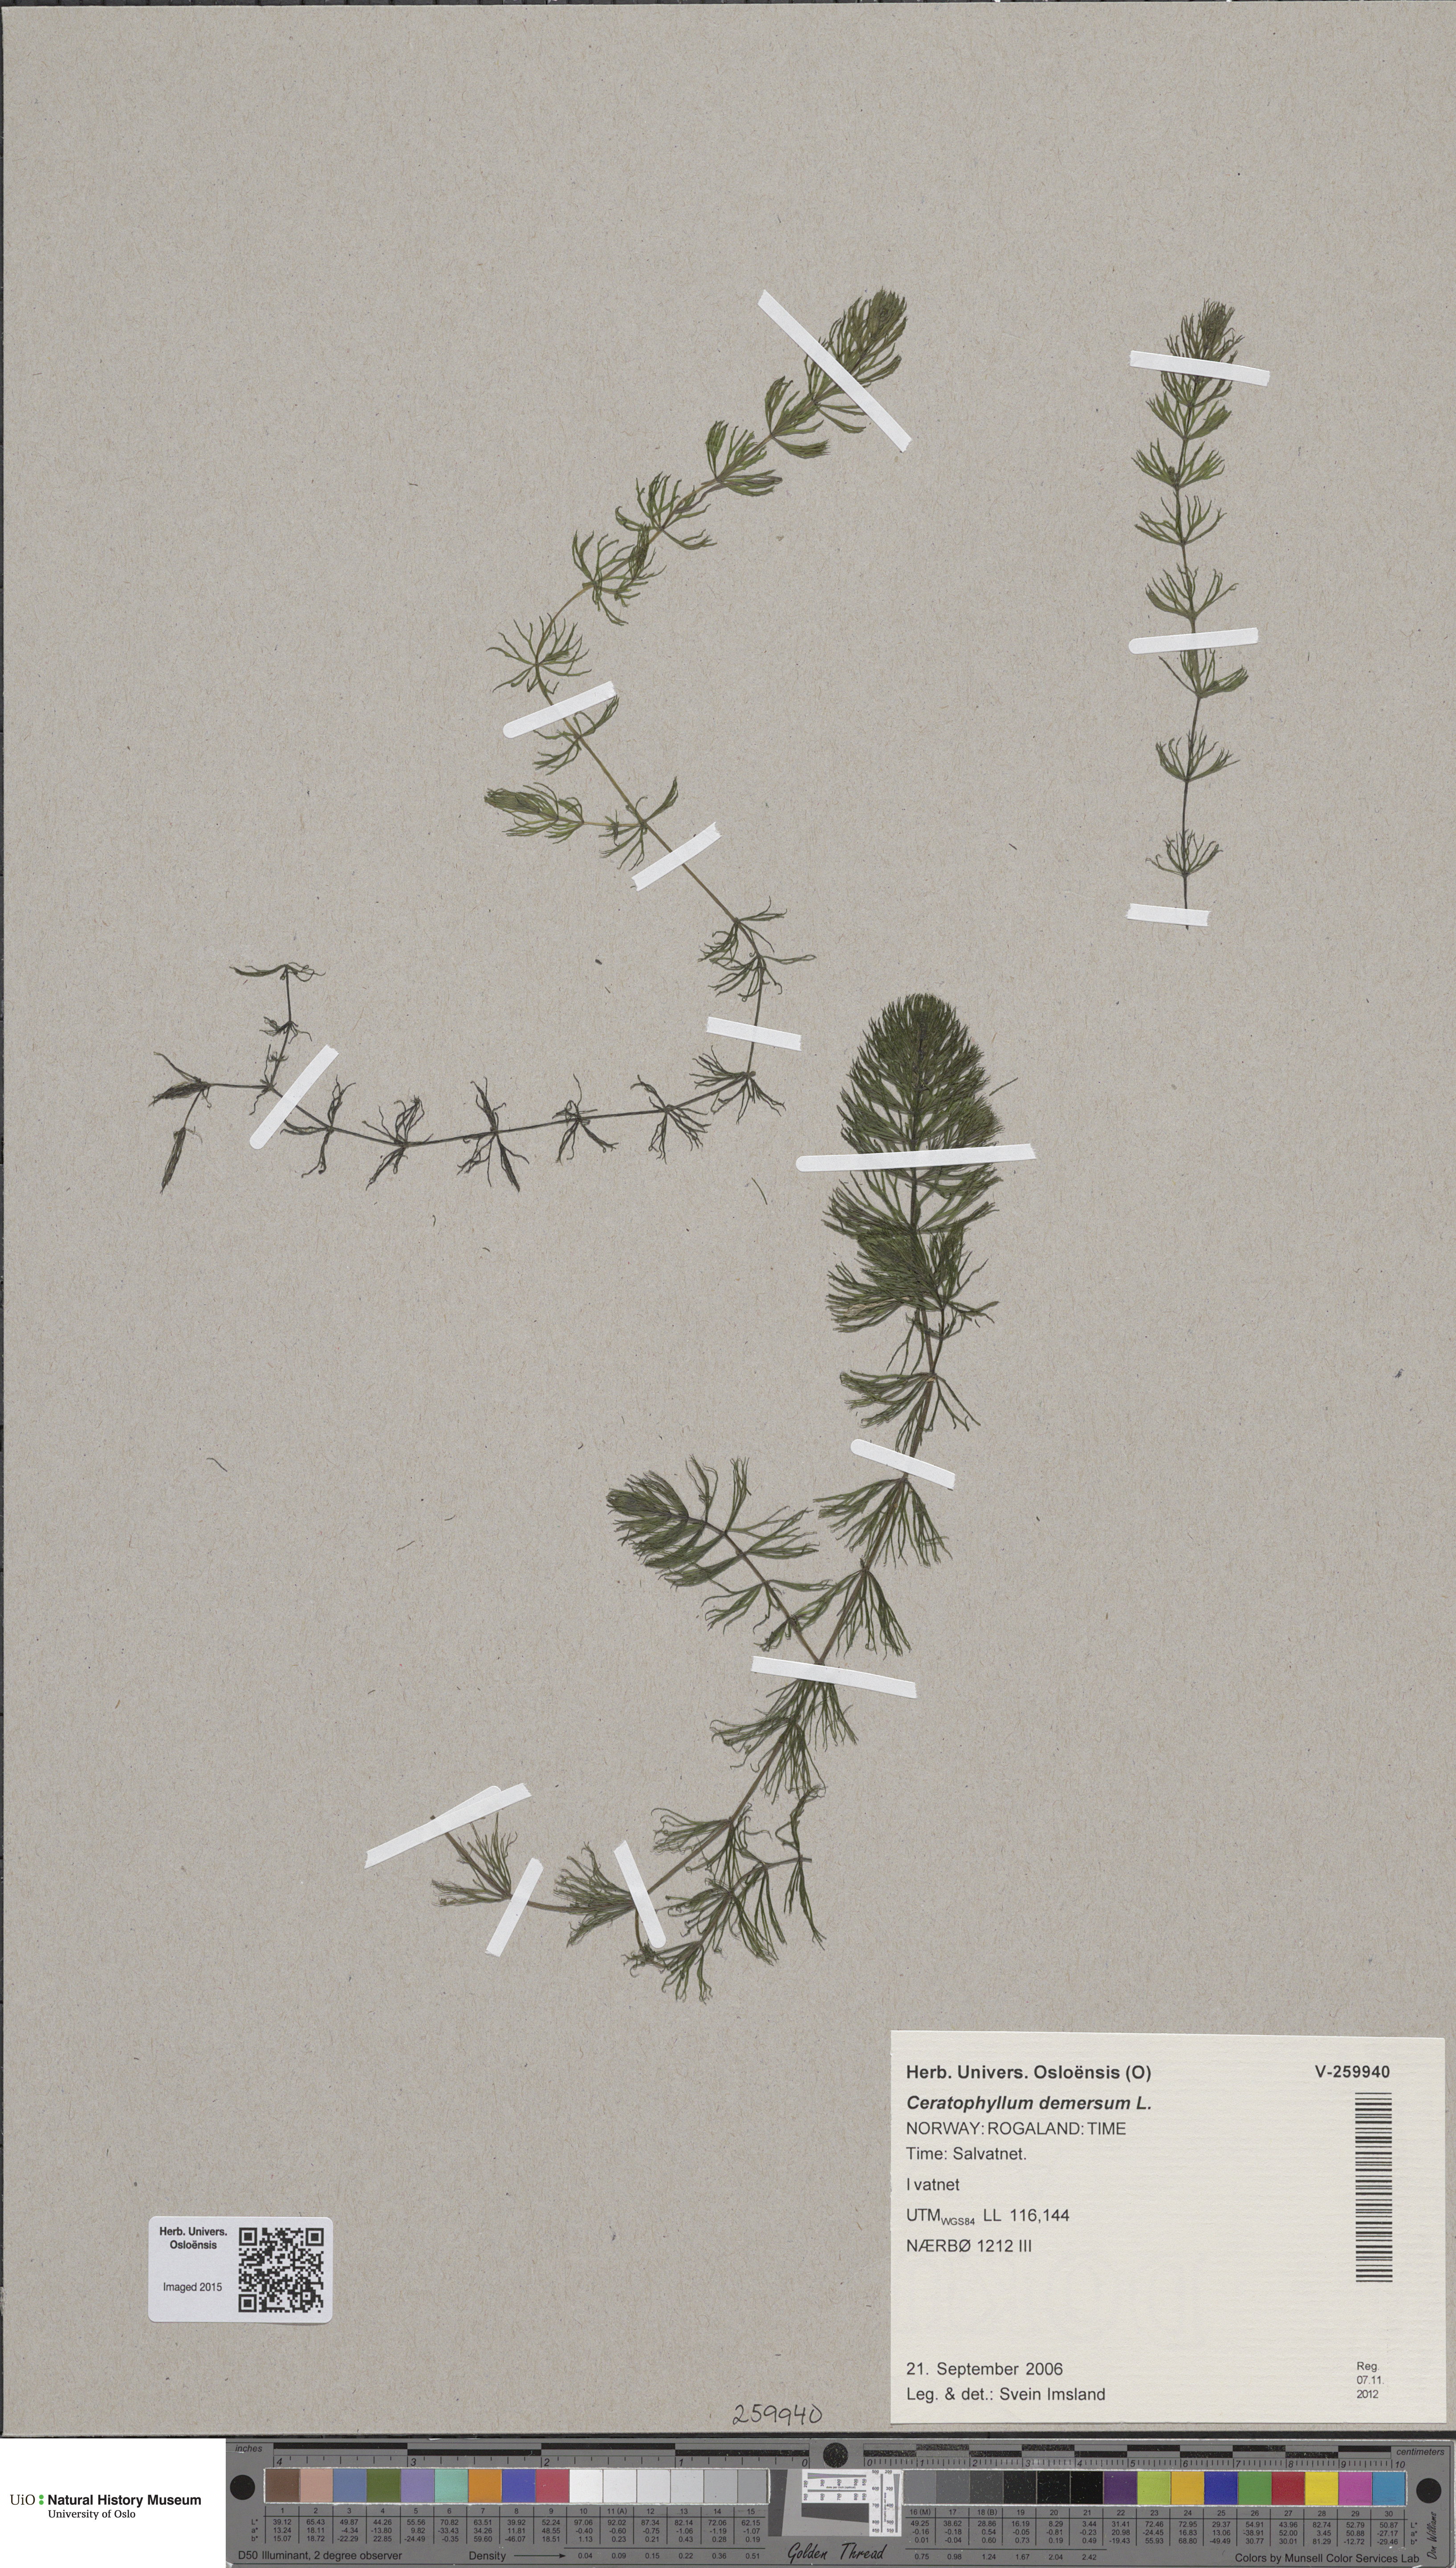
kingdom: Plantae
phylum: Tracheophyta
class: Magnoliopsida
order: Ceratophyllales
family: Ceratophyllaceae
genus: Ceratophyllum
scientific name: Ceratophyllum demersum
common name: Rigid hornwort
